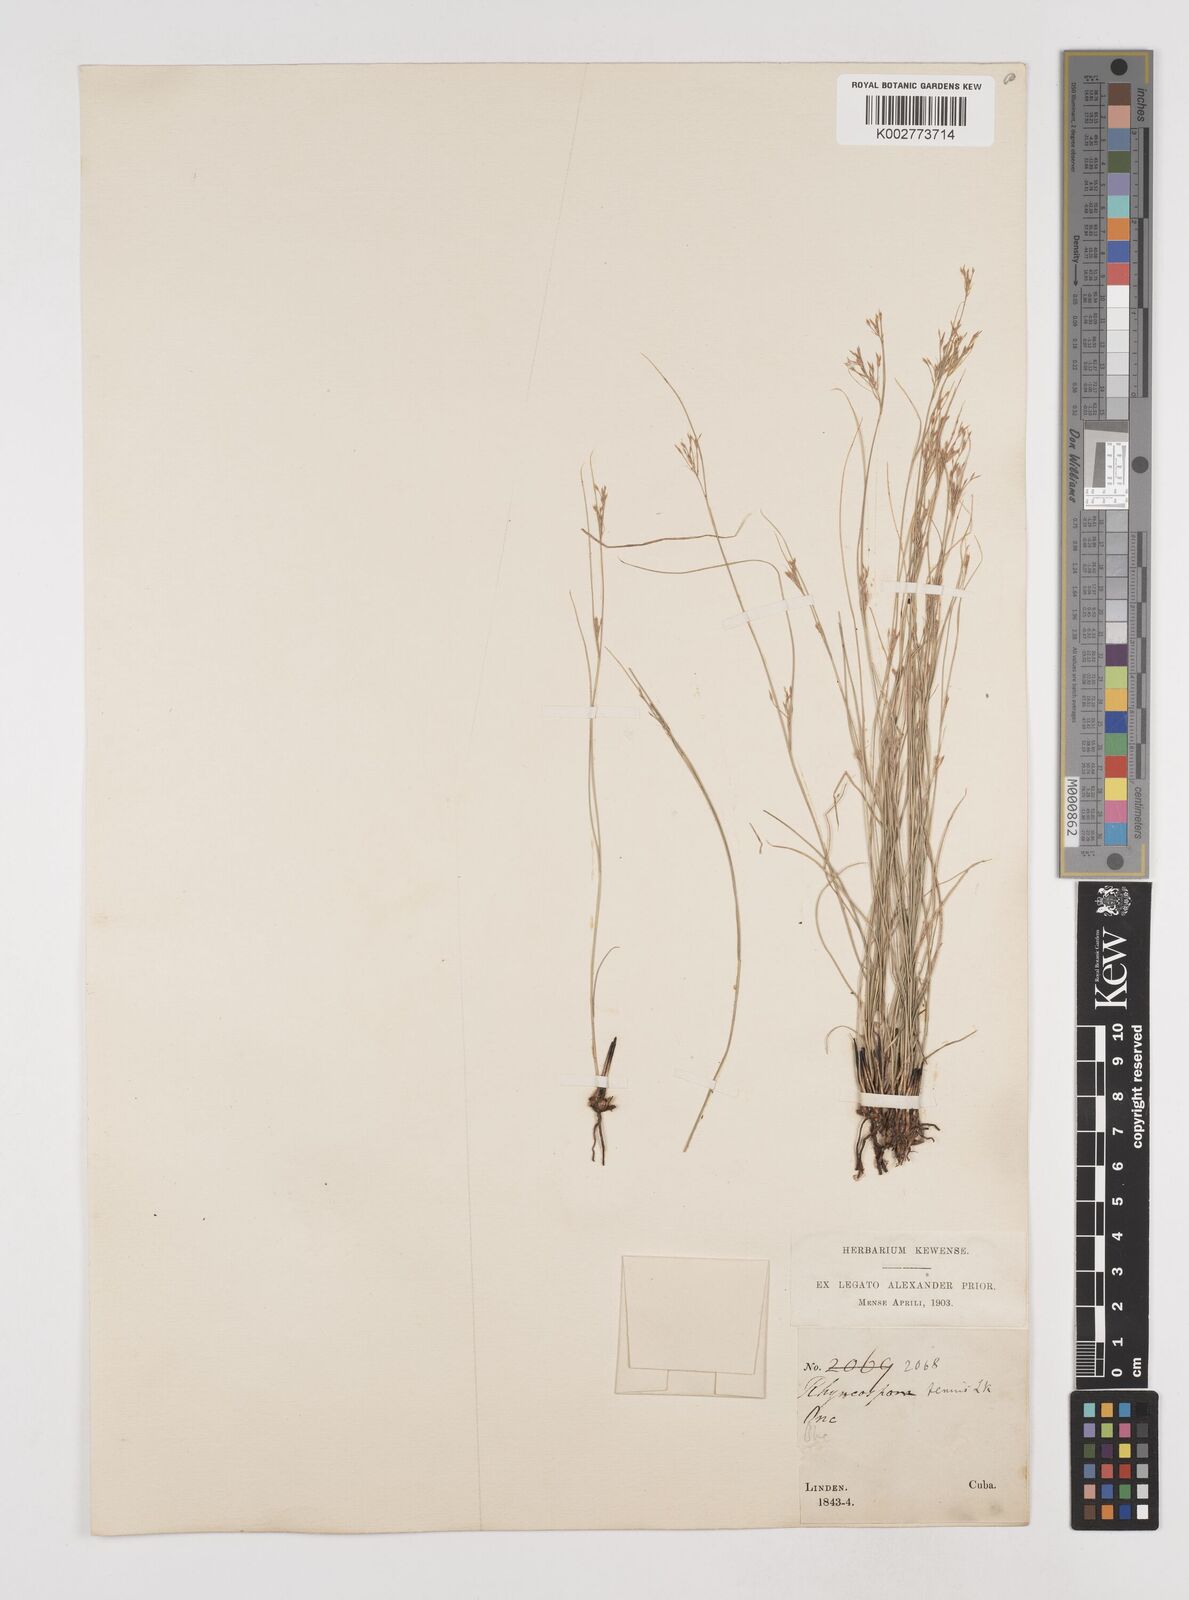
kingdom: Plantae
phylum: Tracheophyta
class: Liliopsida
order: Poales
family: Cyperaceae
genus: Rhynchospora
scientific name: Rhynchospora tenuis
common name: Quill beaksedge
